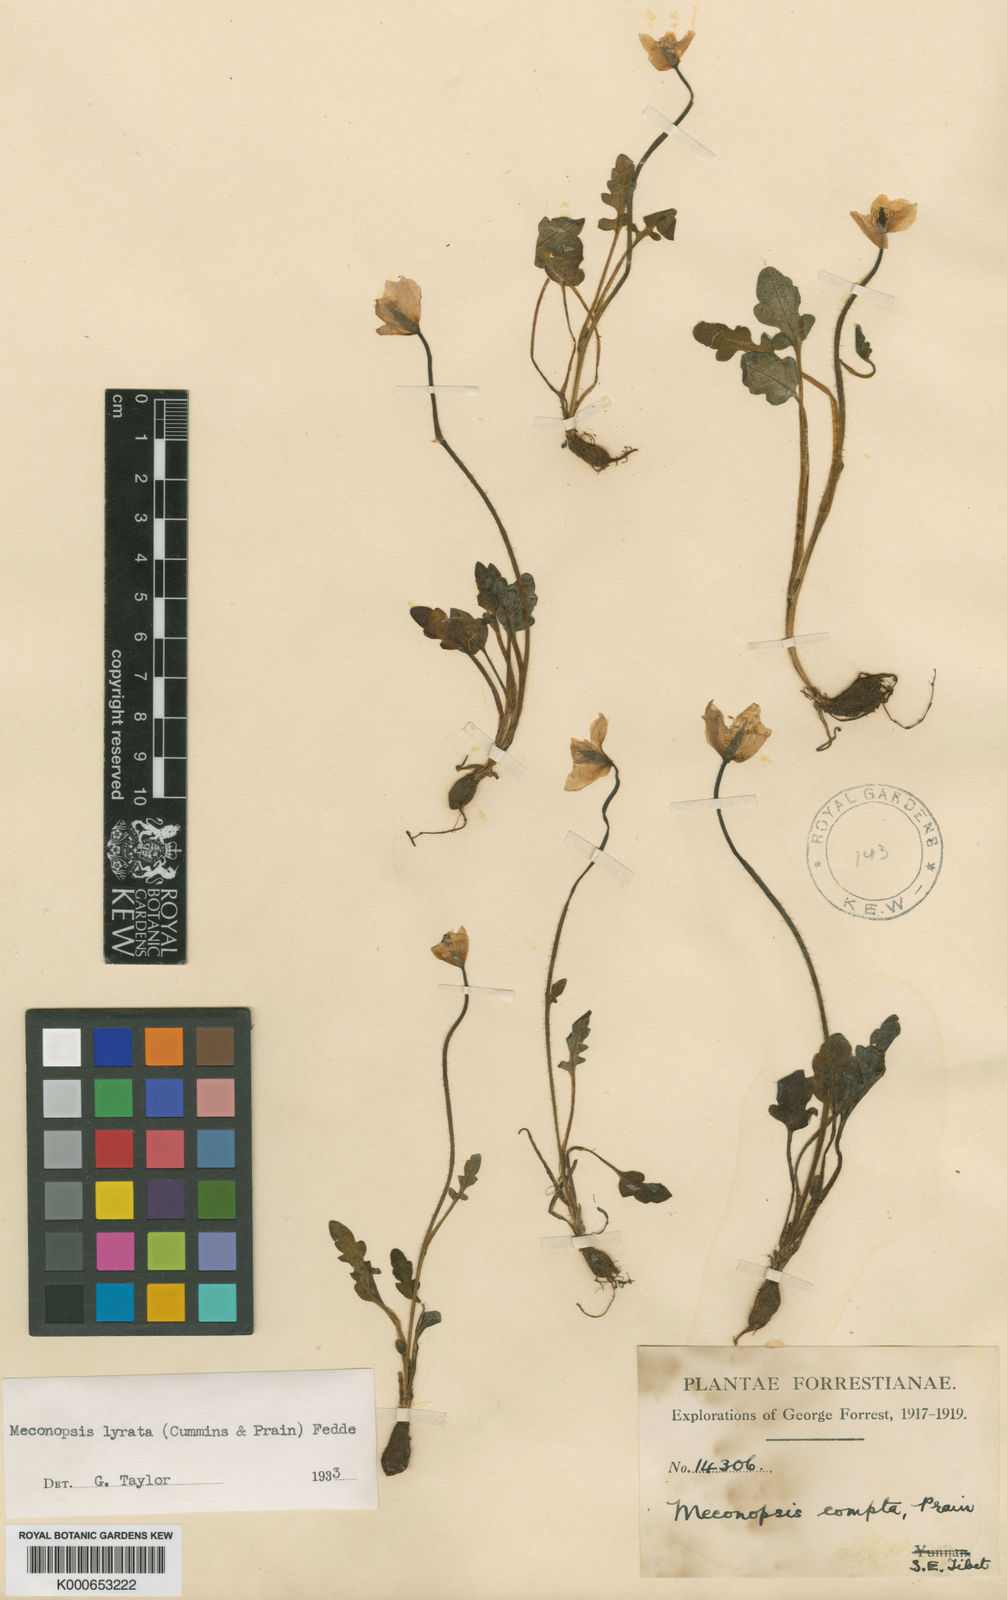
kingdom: Plantae
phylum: Tracheophyta
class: Magnoliopsida
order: Ranunculales
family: Papaveraceae
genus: Meconopsis
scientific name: Meconopsis lyrata
